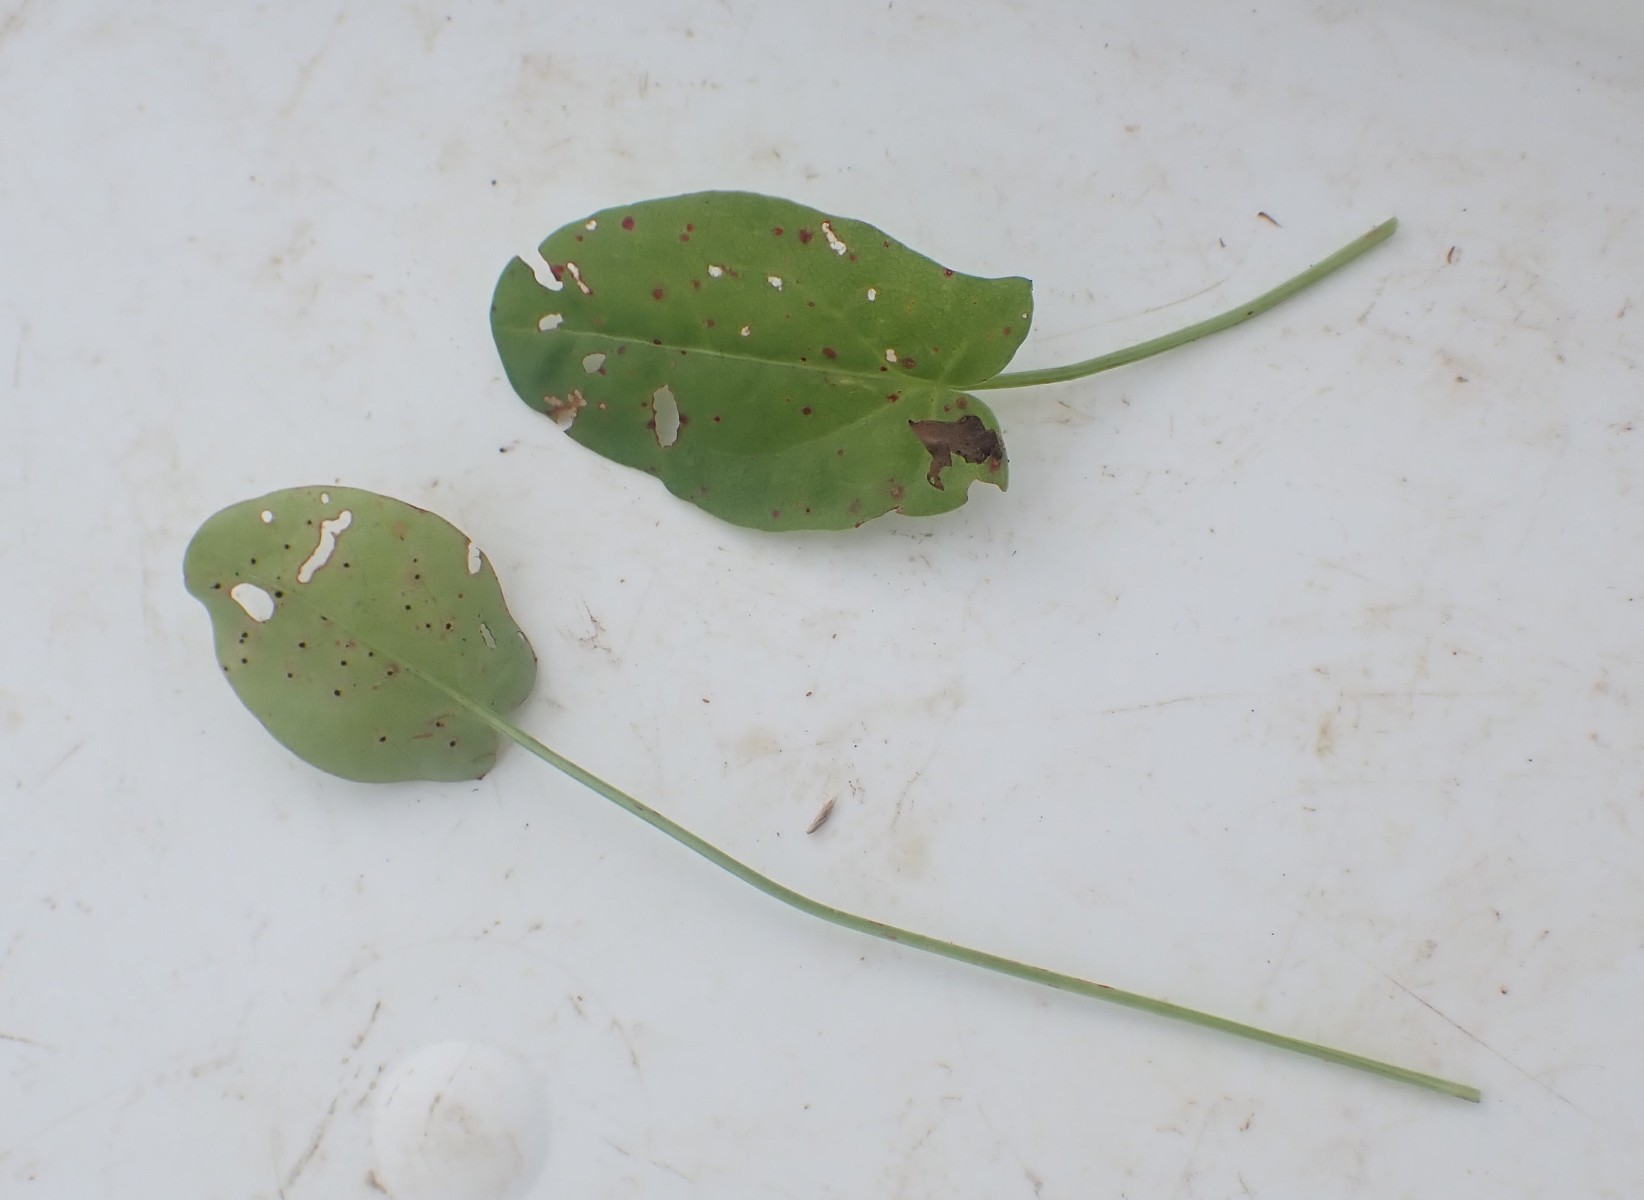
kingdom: Fungi
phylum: Basidiomycota
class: Pucciniomycetes
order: Pucciniales
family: Pucciniaceae
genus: Puccinia
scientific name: Puccinia acetosae
